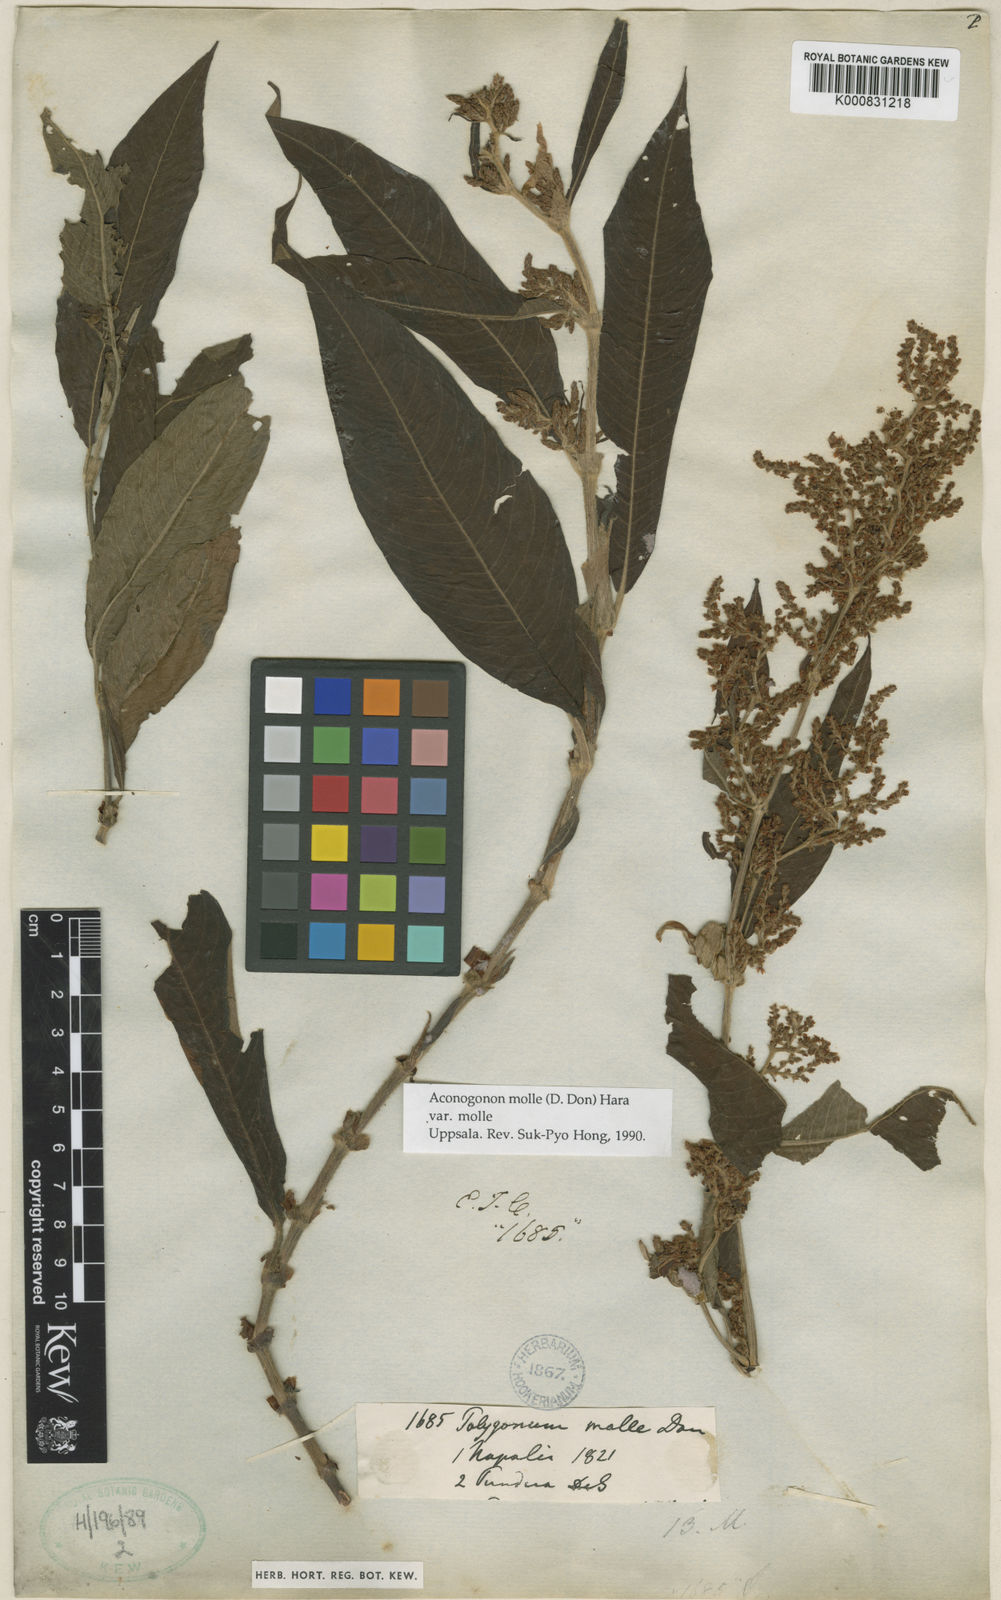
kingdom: Plantae
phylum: Tracheophyta
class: Magnoliopsida
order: Caryophyllales
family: Polygonaceae
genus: Koenigia
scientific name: Koenigia mollis
